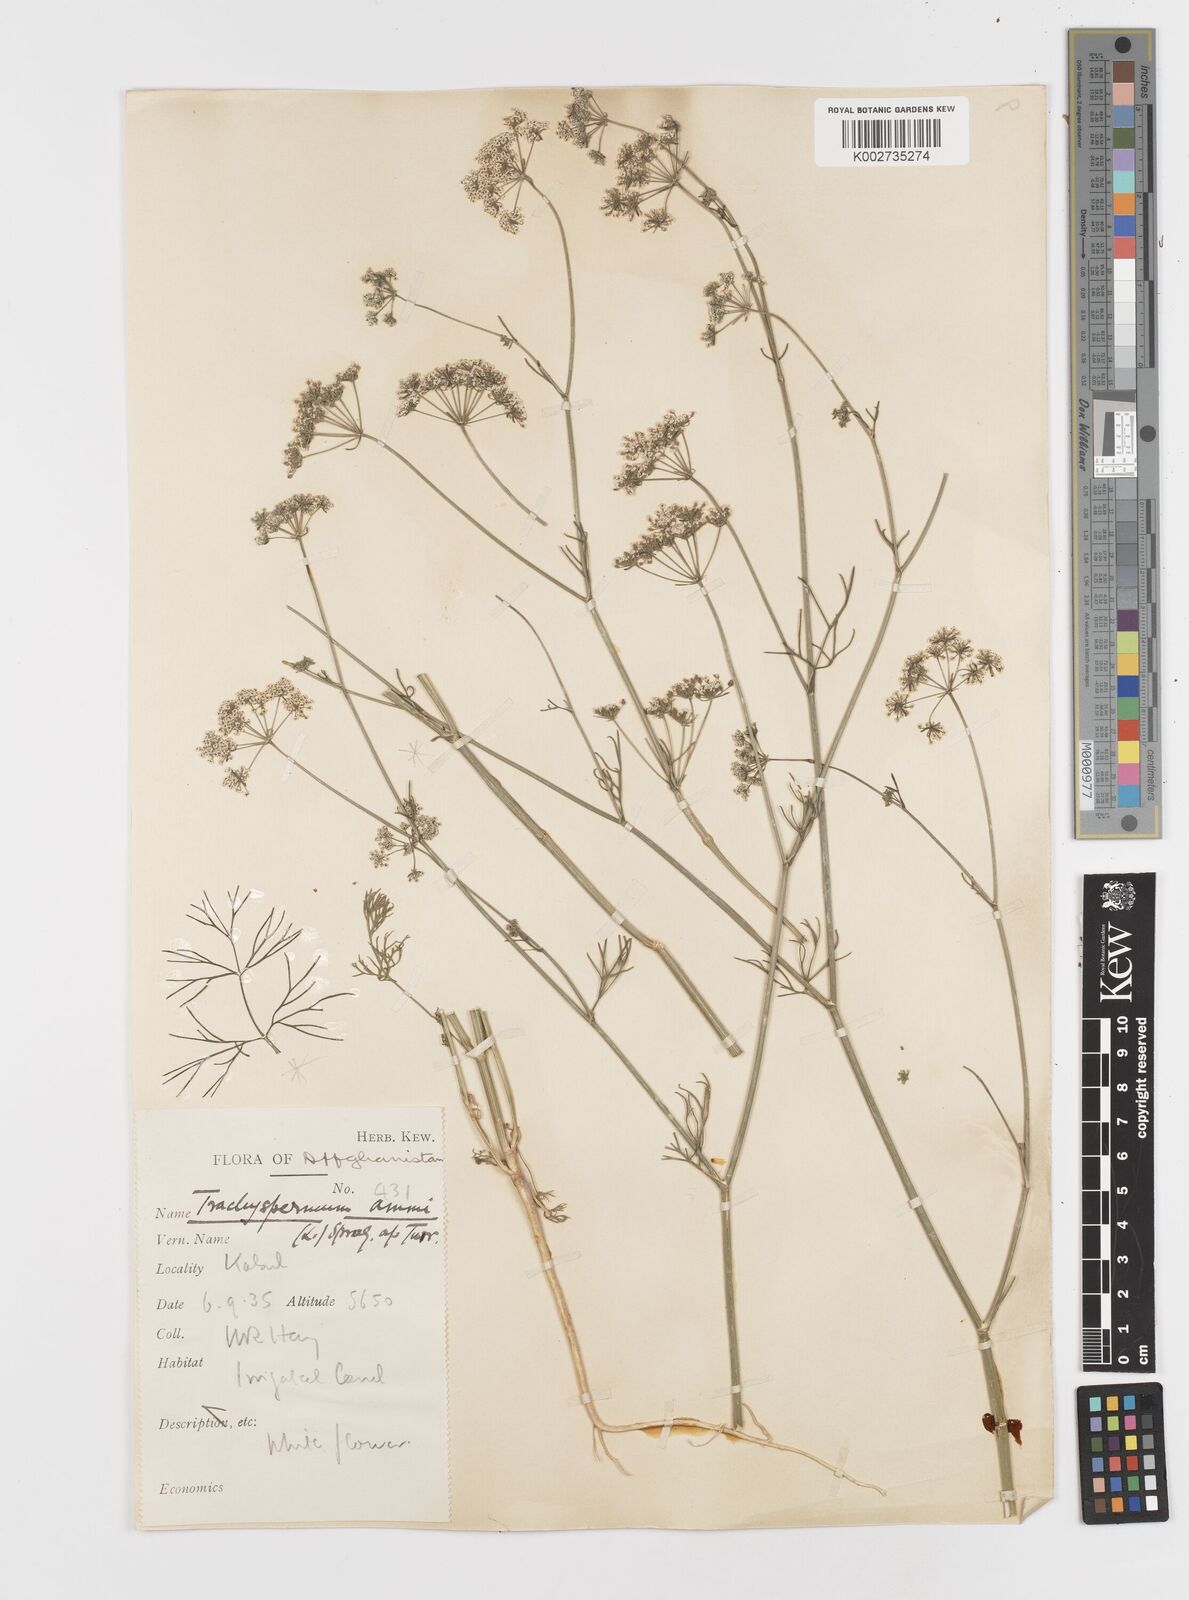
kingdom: Plantae
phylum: Tracheophyta
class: Magnoliopsida
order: Apiales
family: Apiaceae
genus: Trachyspermum
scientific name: Trachyspermum ammi
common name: Ajowan
